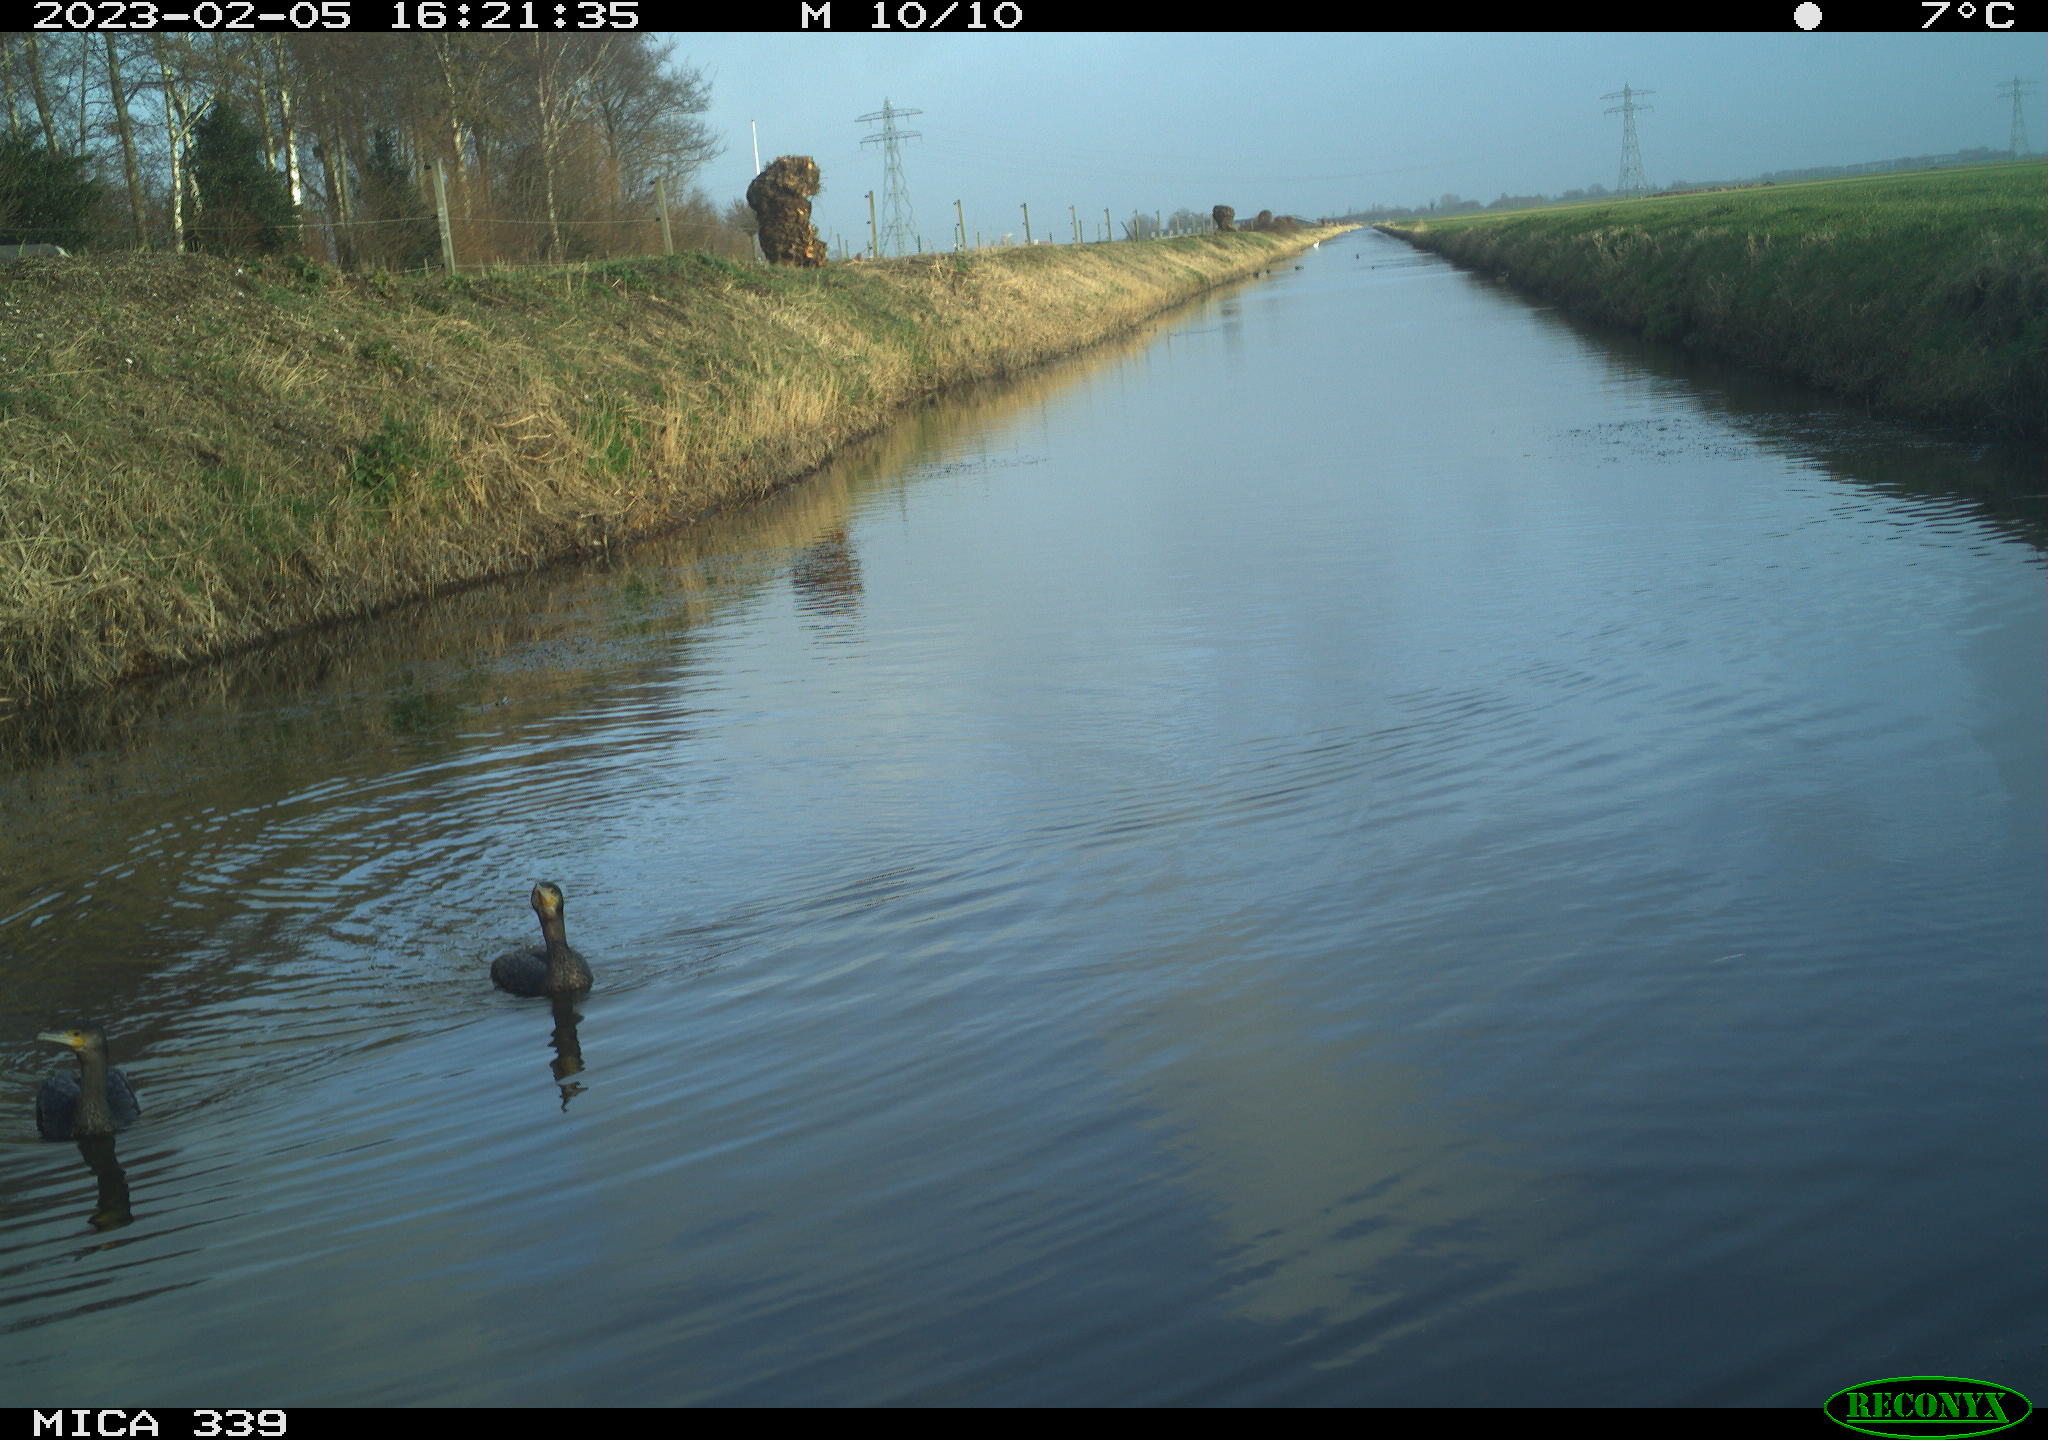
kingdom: Animalia
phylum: Chordata
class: Aves
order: Suliformes
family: Phalacrocoracidae
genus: Phalacrocorax
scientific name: Phalacrocorax carbo
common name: Great cormorant
